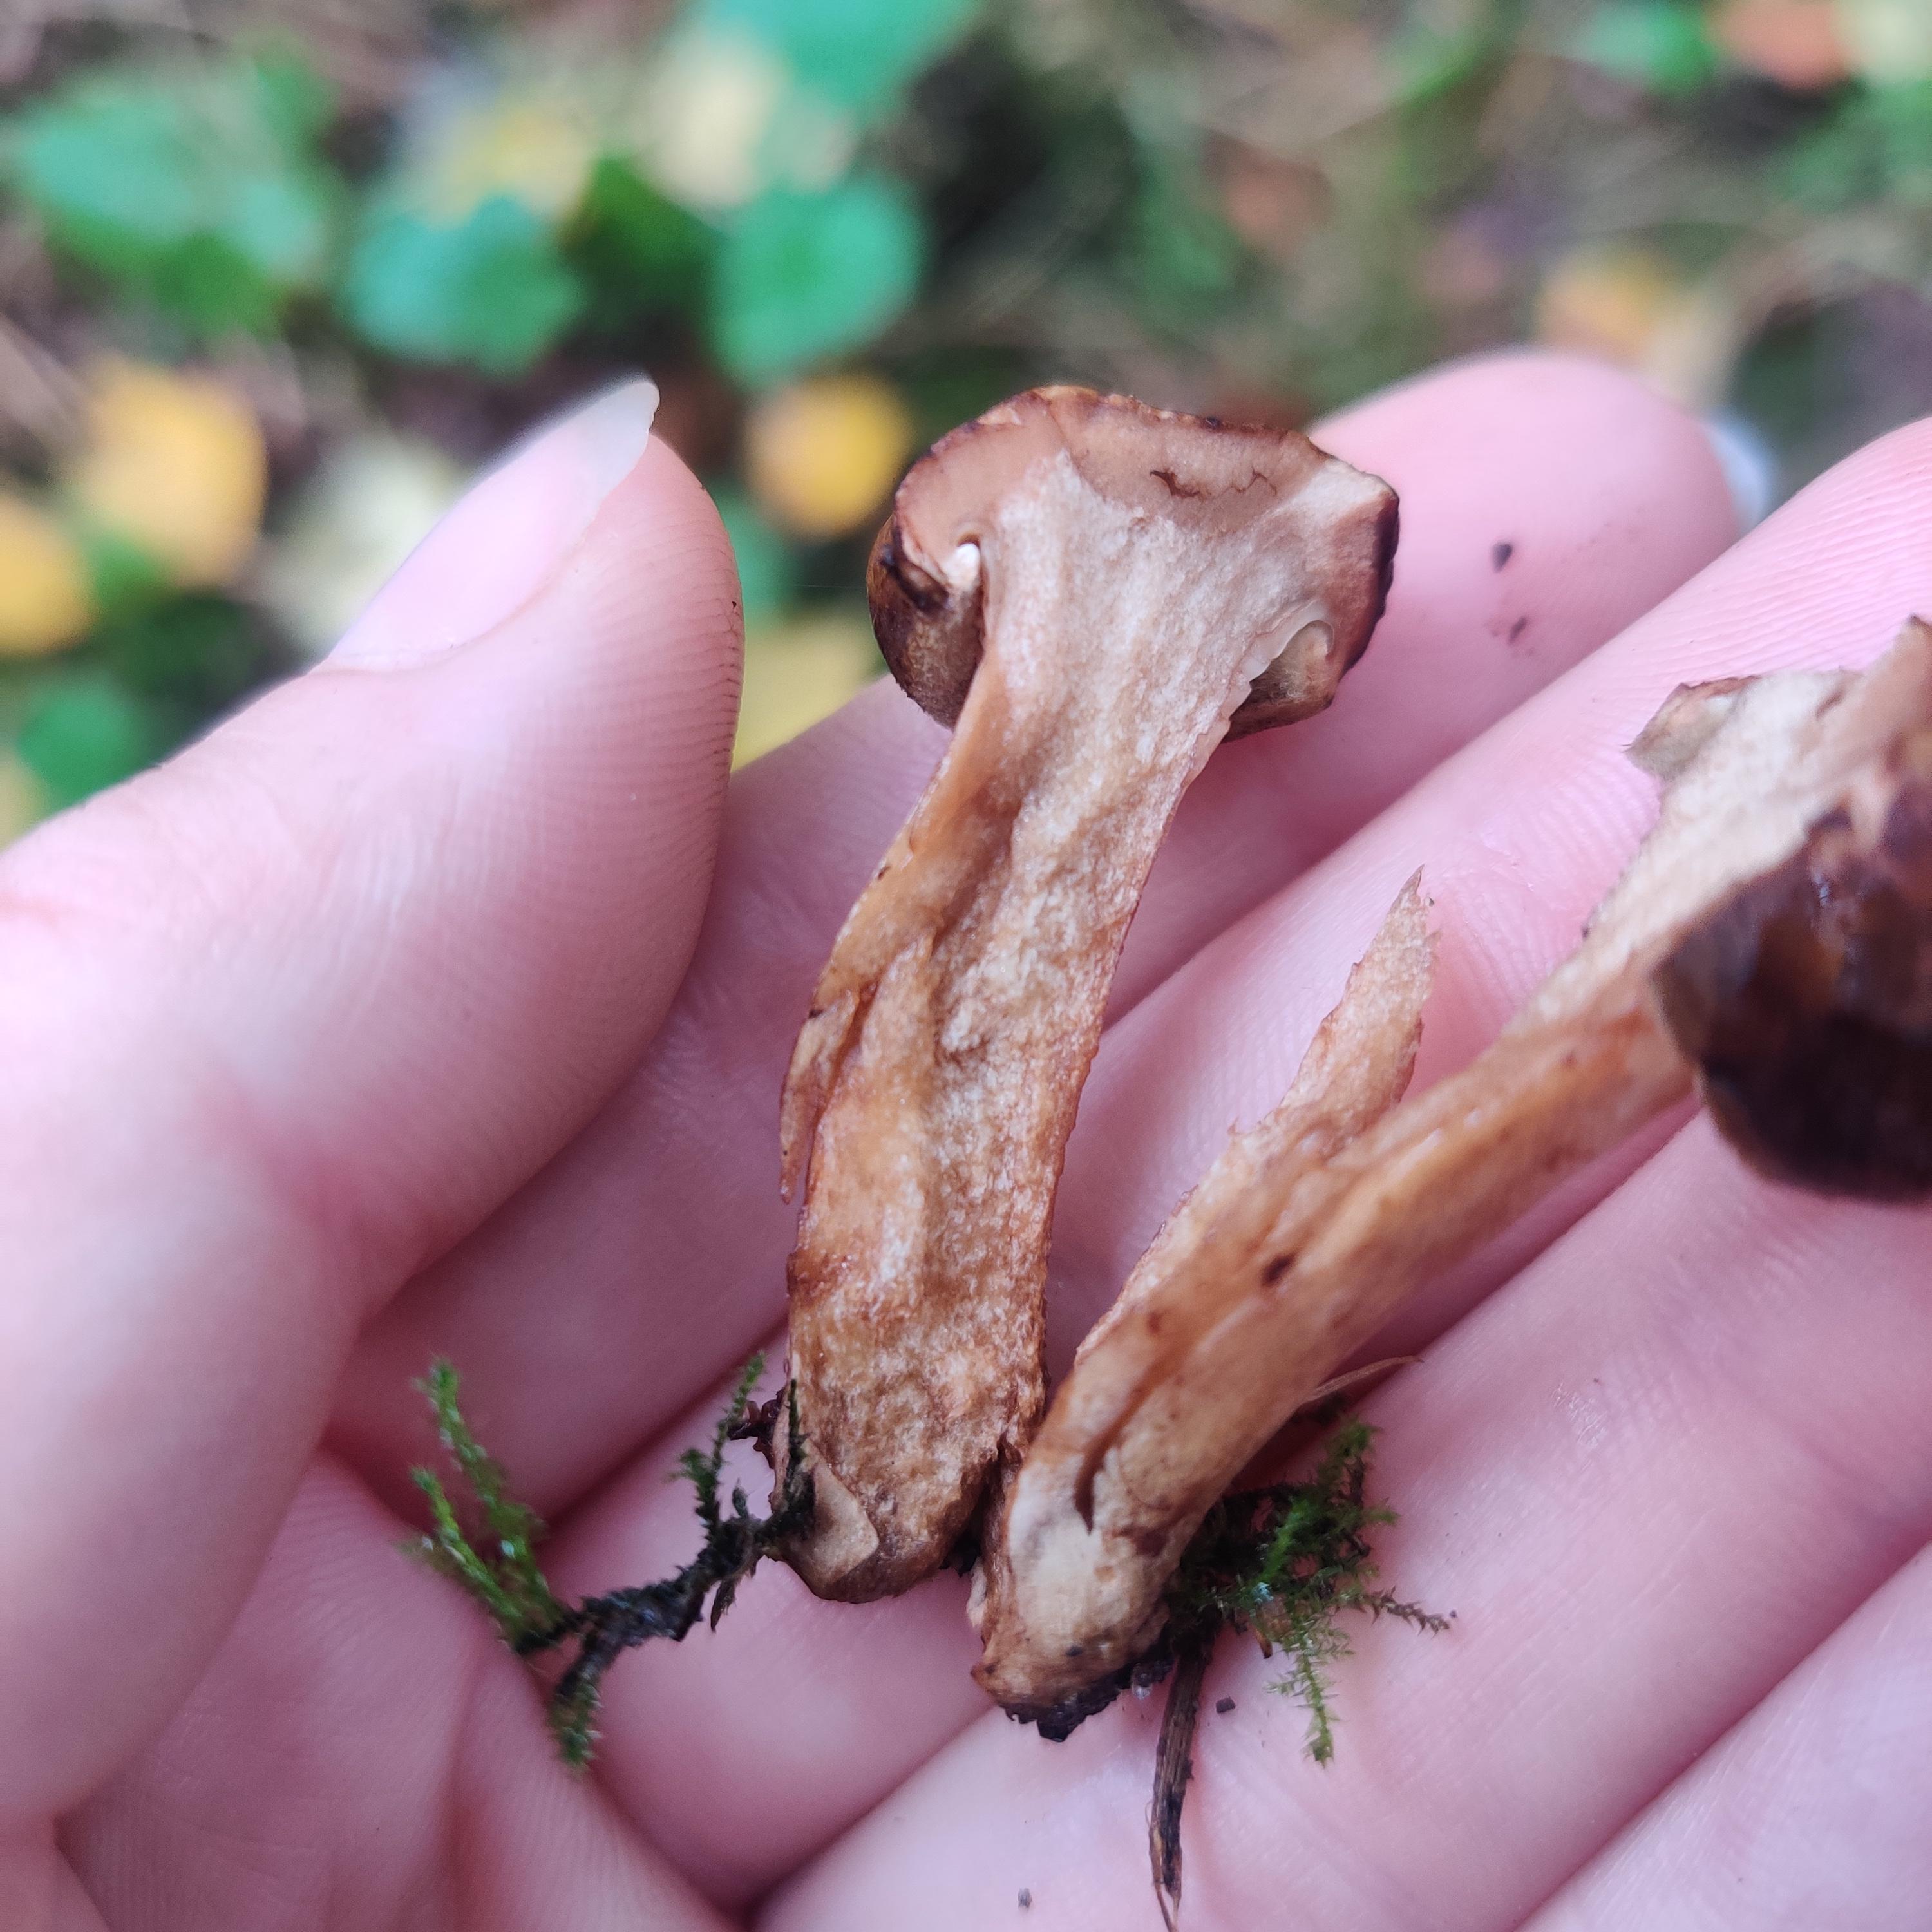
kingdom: Fungi
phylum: Basidiomycota
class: Agaricomycetes
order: Boletales
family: Paxillaceae
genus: Paxillus
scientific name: Paxillus
